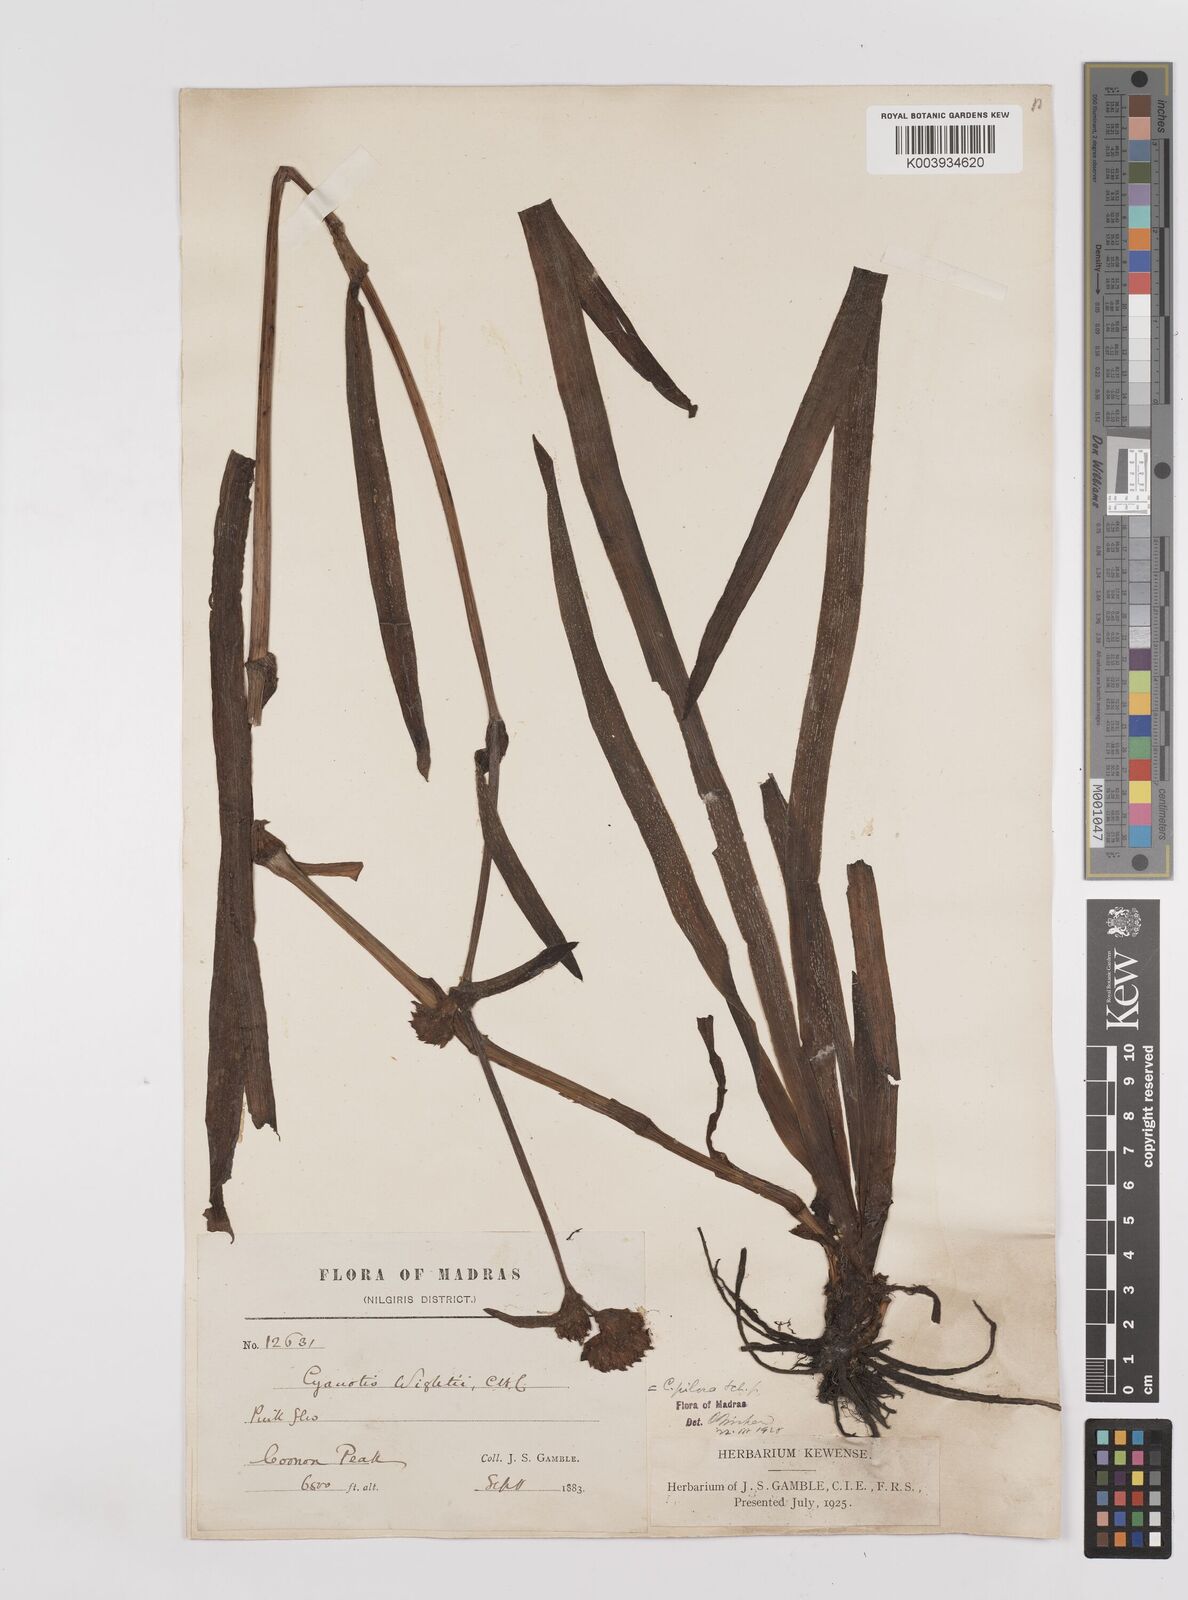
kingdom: Plantae
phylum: Tracheophyta
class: Liliopsida
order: Commelinales
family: Commelinaceae
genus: Cyanotis
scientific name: Cyanotis pilosa
